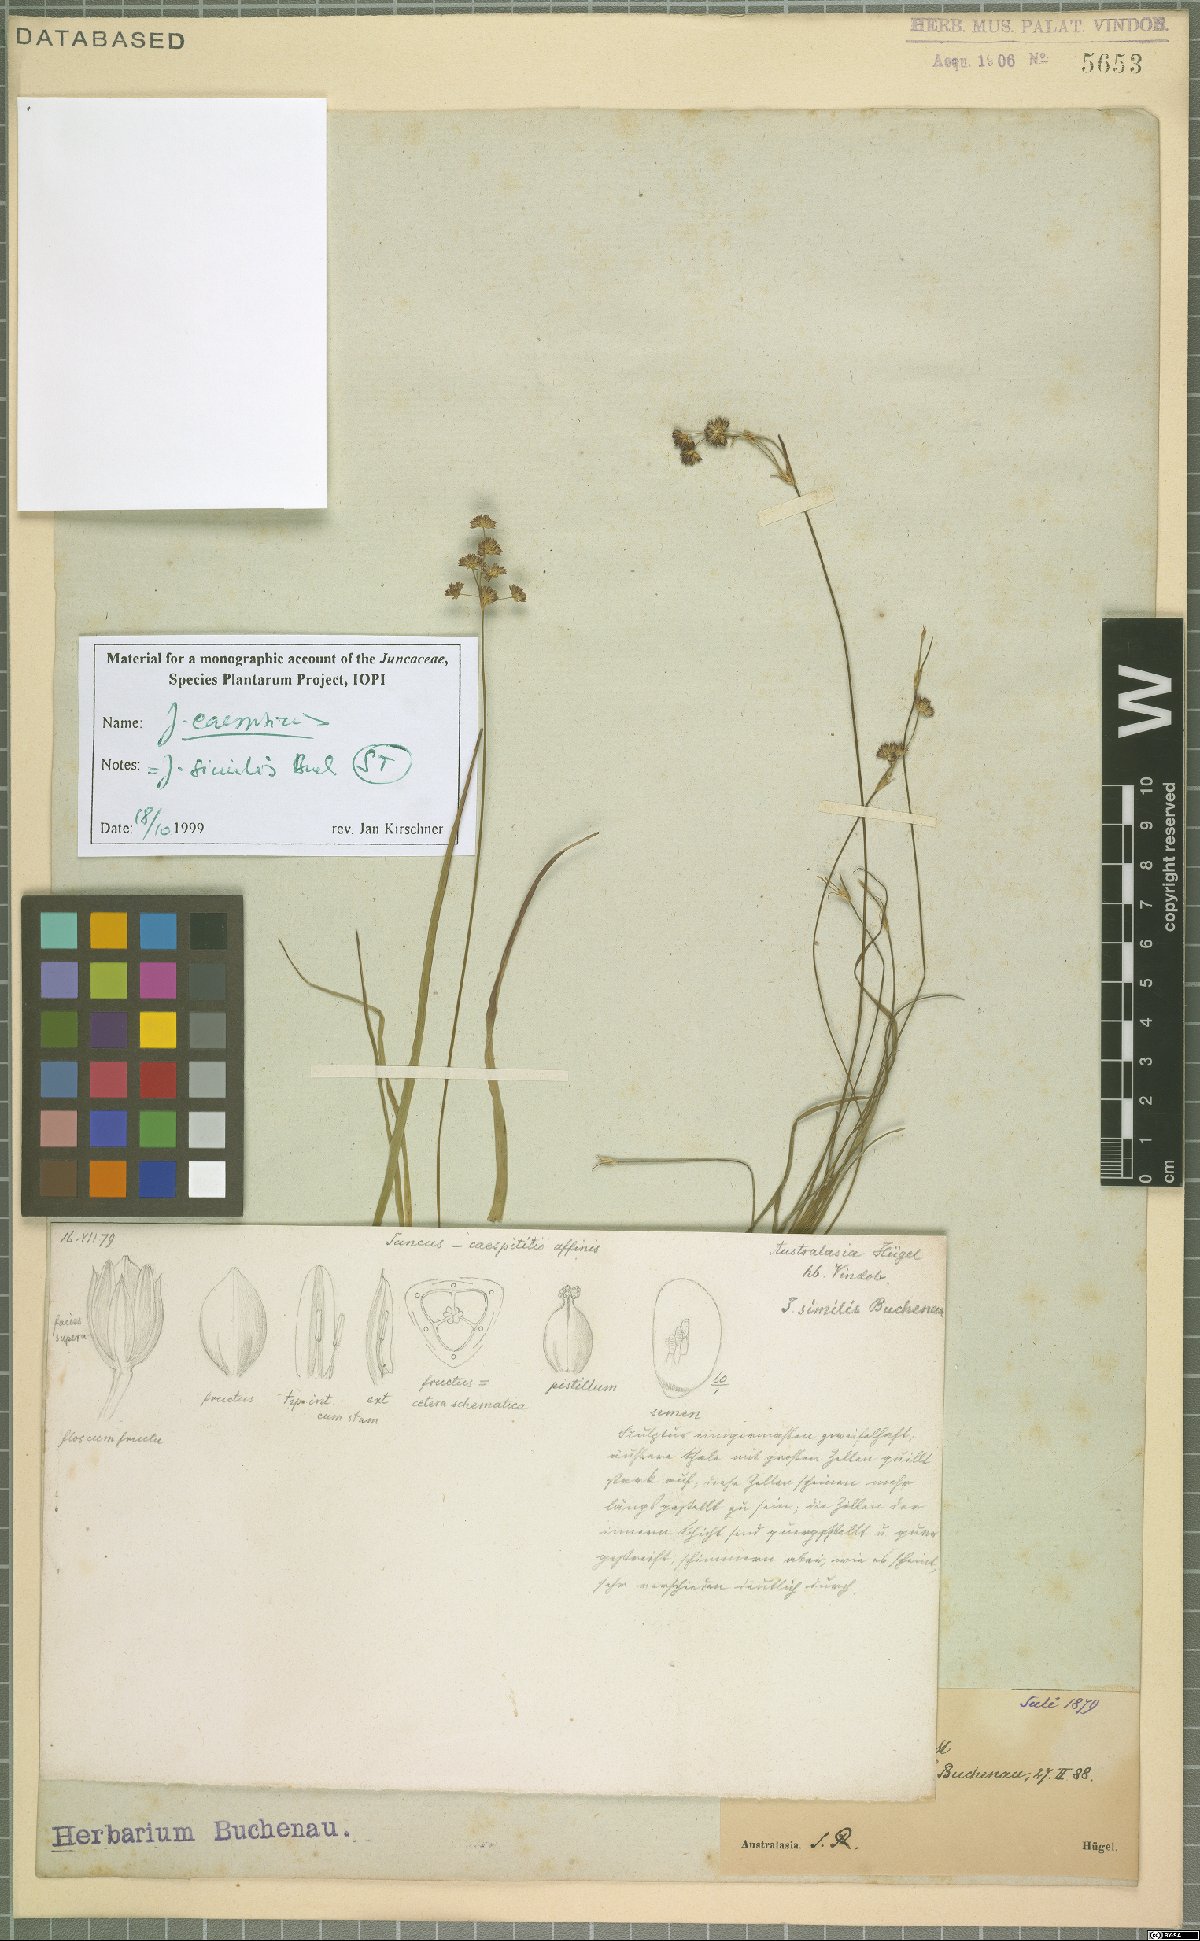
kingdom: Plantae
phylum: Tracheophyta
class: Liliopsida
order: Poales
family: Juncaceae
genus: Juncus
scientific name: Juncus caespiticius
